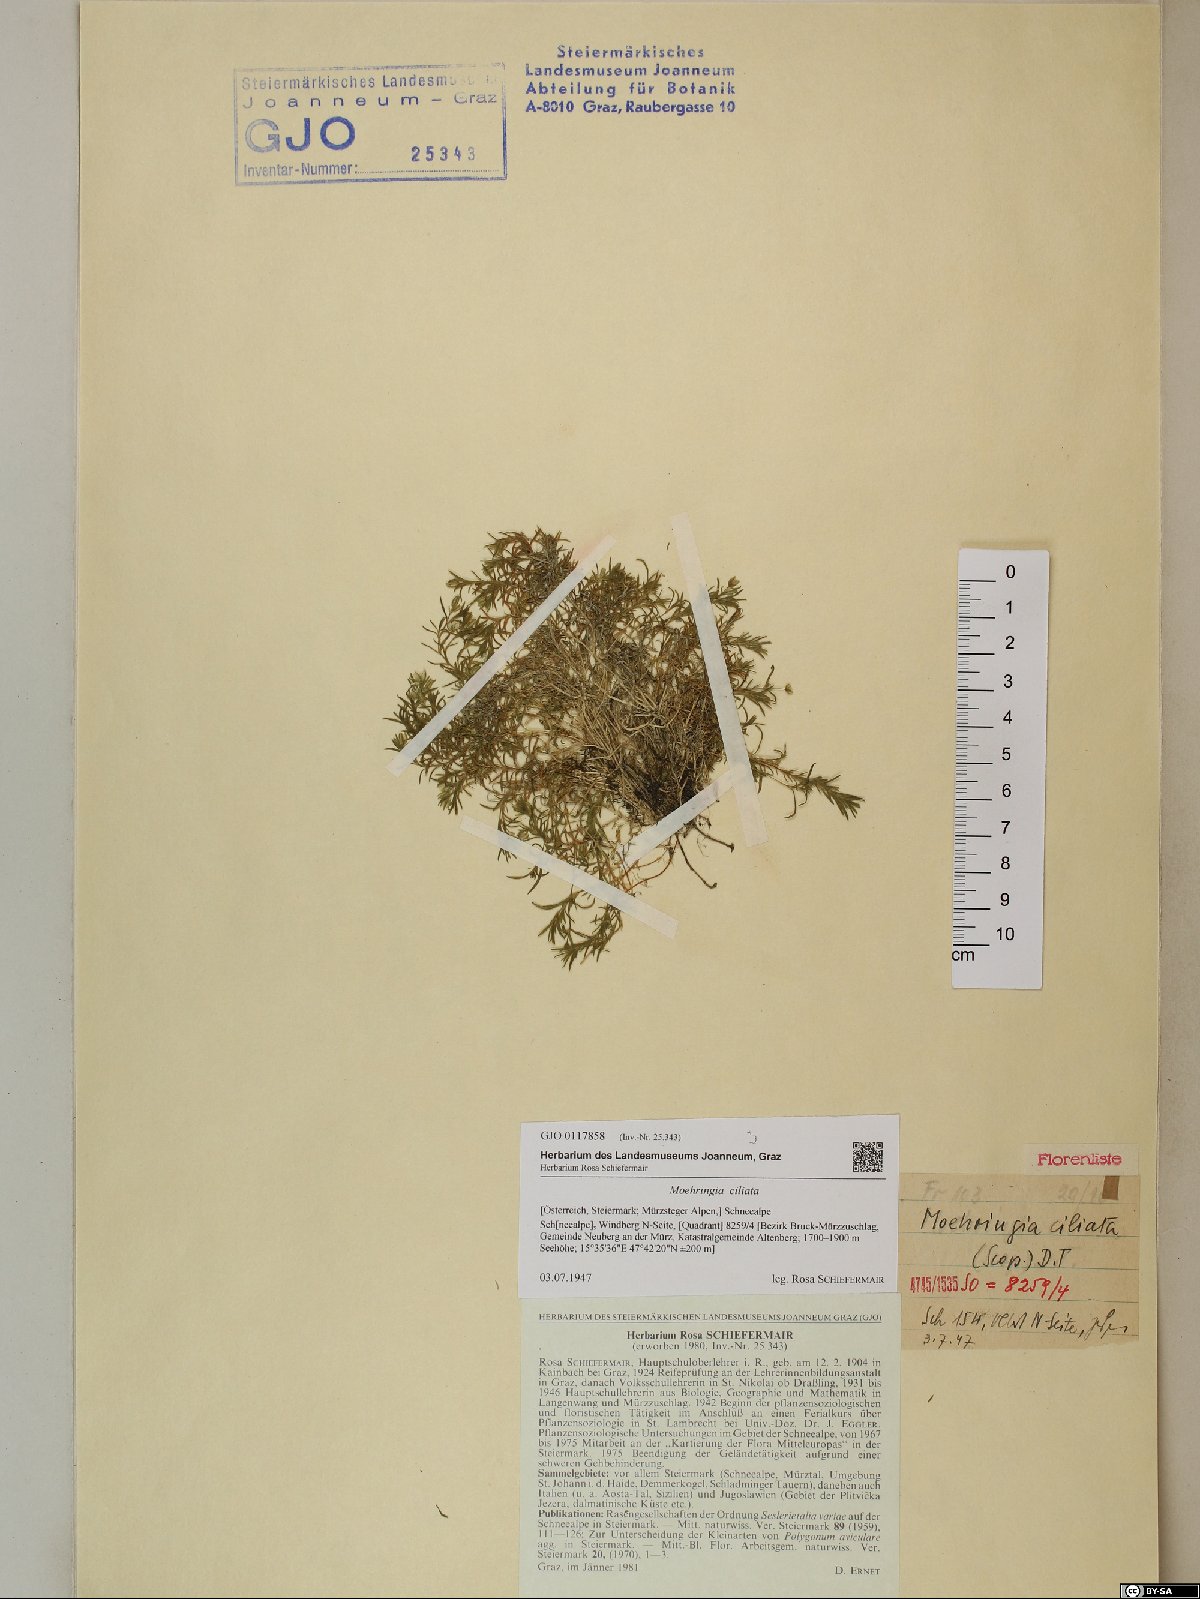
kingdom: Plantae
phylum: Tracheophyta
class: Magnoliopsida
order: Caryophyllales
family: Caryophyllaceae
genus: Moehringia
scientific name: Moehringia ciliata
